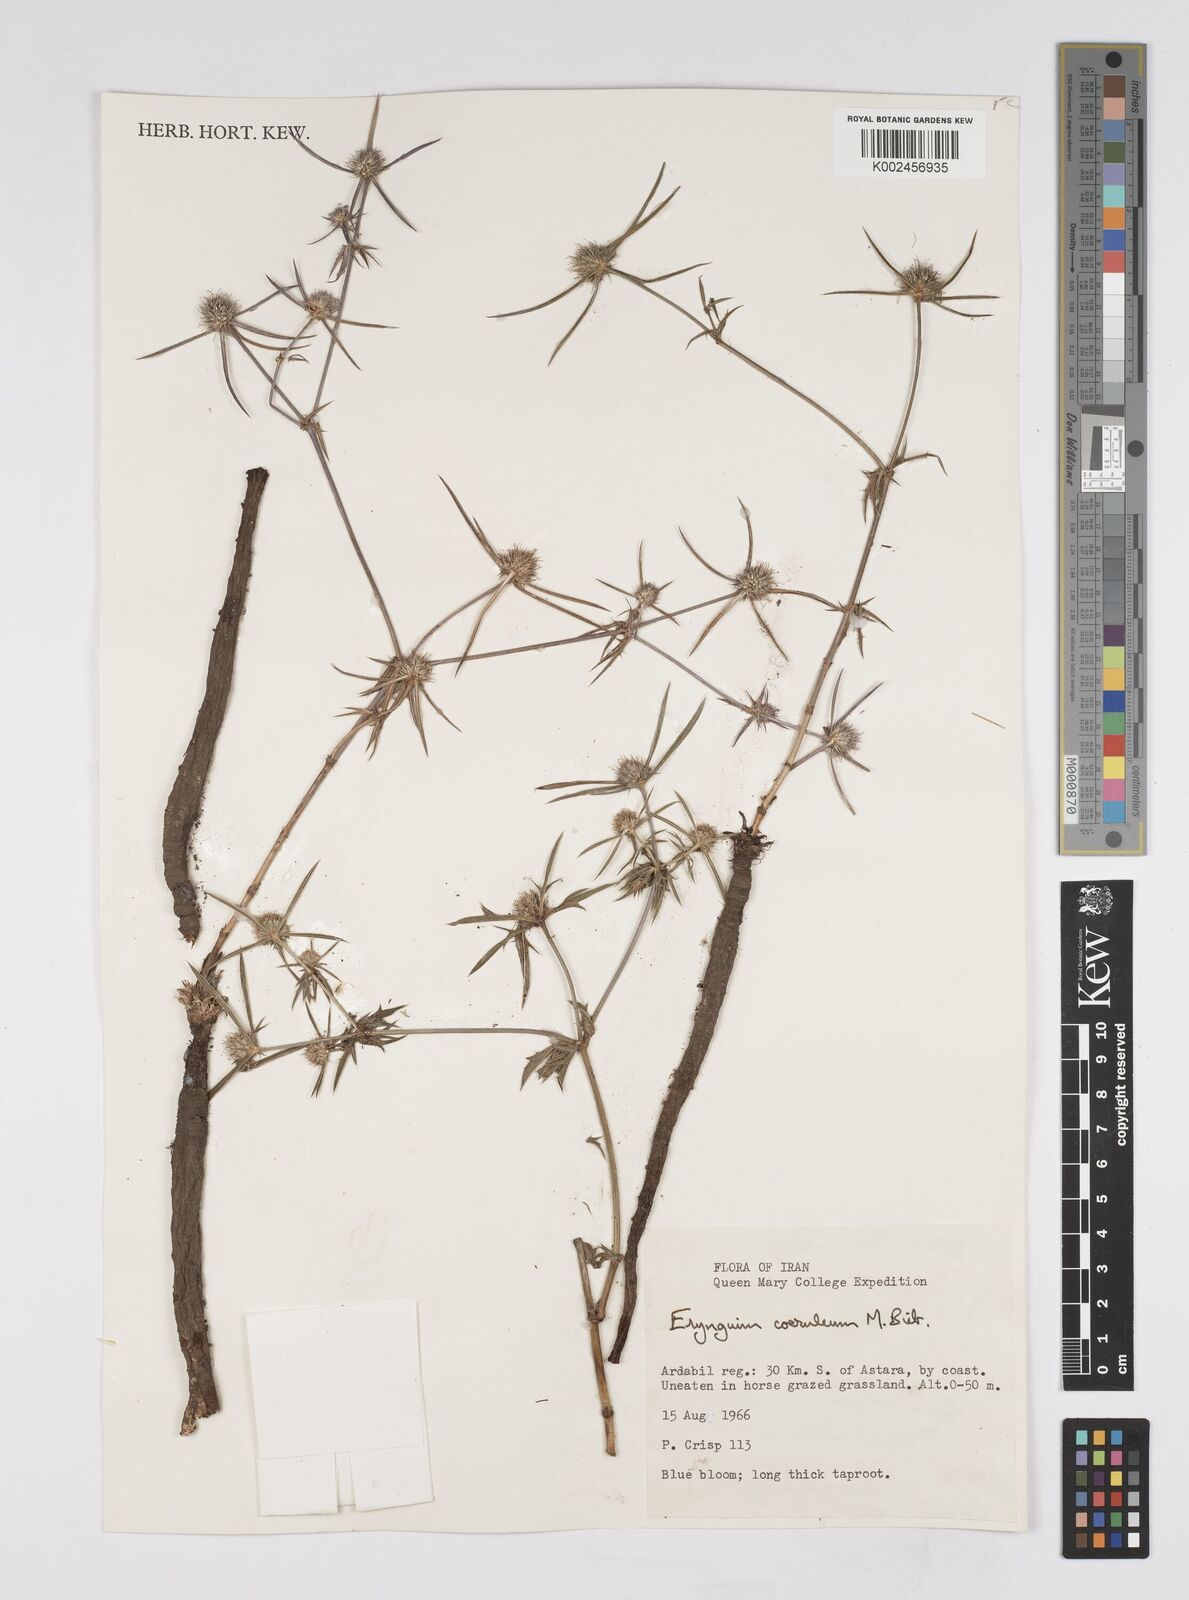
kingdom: Plantae
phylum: Tracheophyta
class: Magnoliopsida
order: Apiales
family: Apiaceae
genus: Eryngium
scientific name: Eryngium caeruleum
